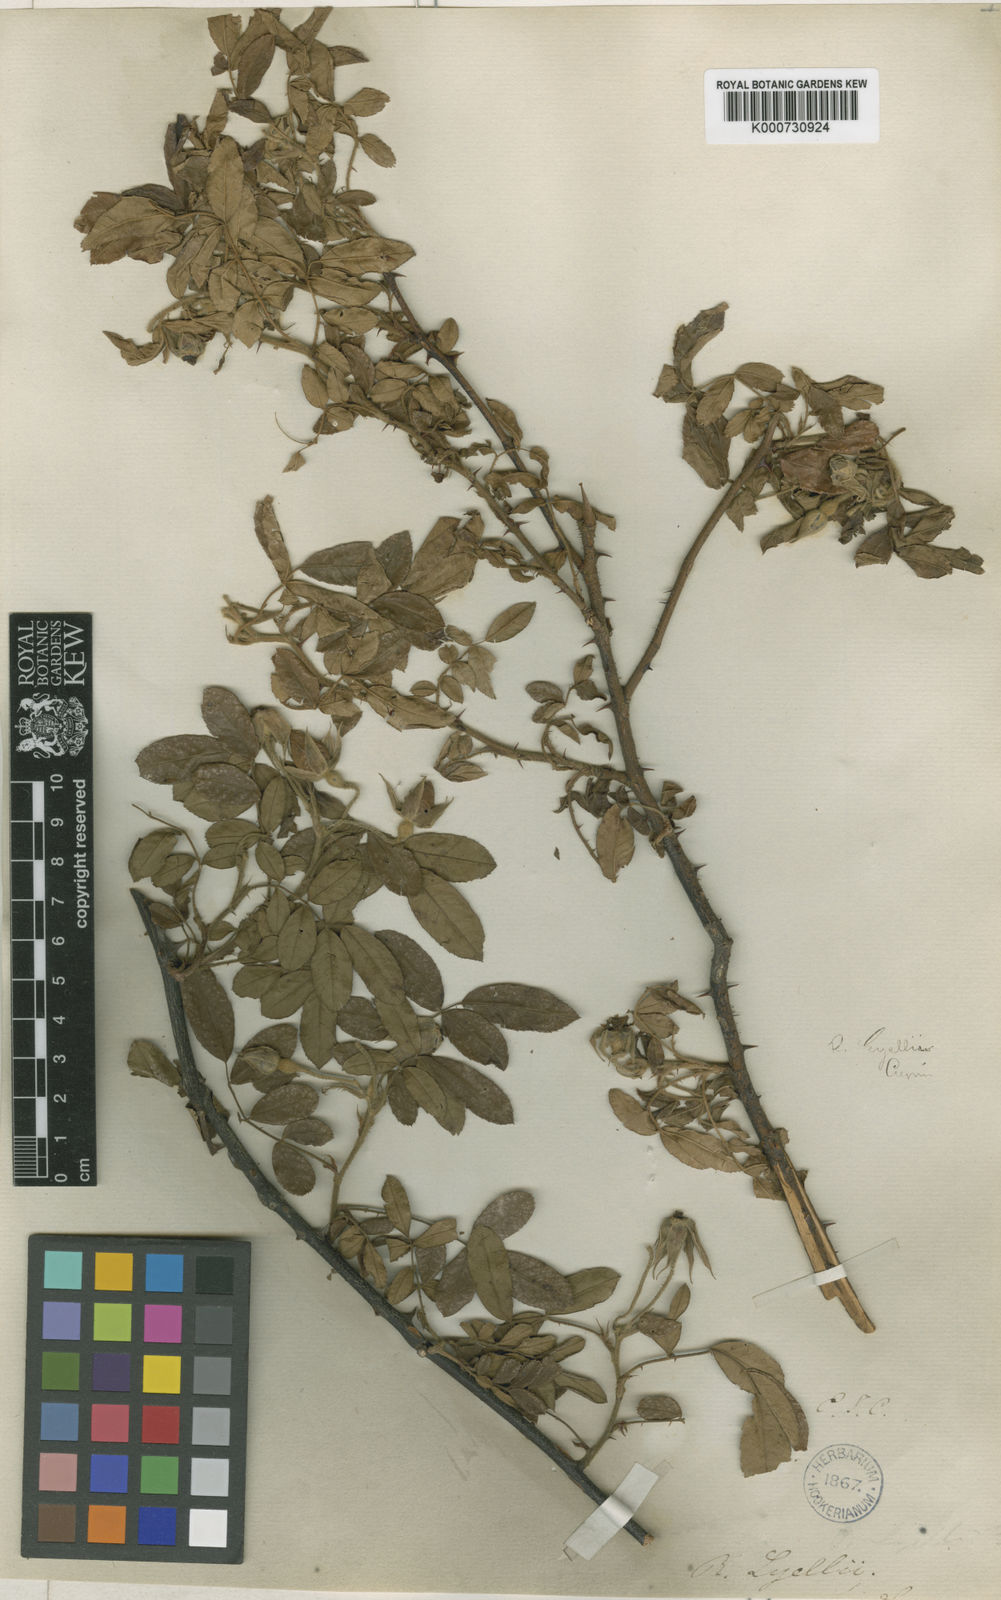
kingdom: Plantae
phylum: Tracheophyta
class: Magnoliopsida
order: Rosales
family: Rosaceae
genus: Rosa
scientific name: Rosa clinophylla
